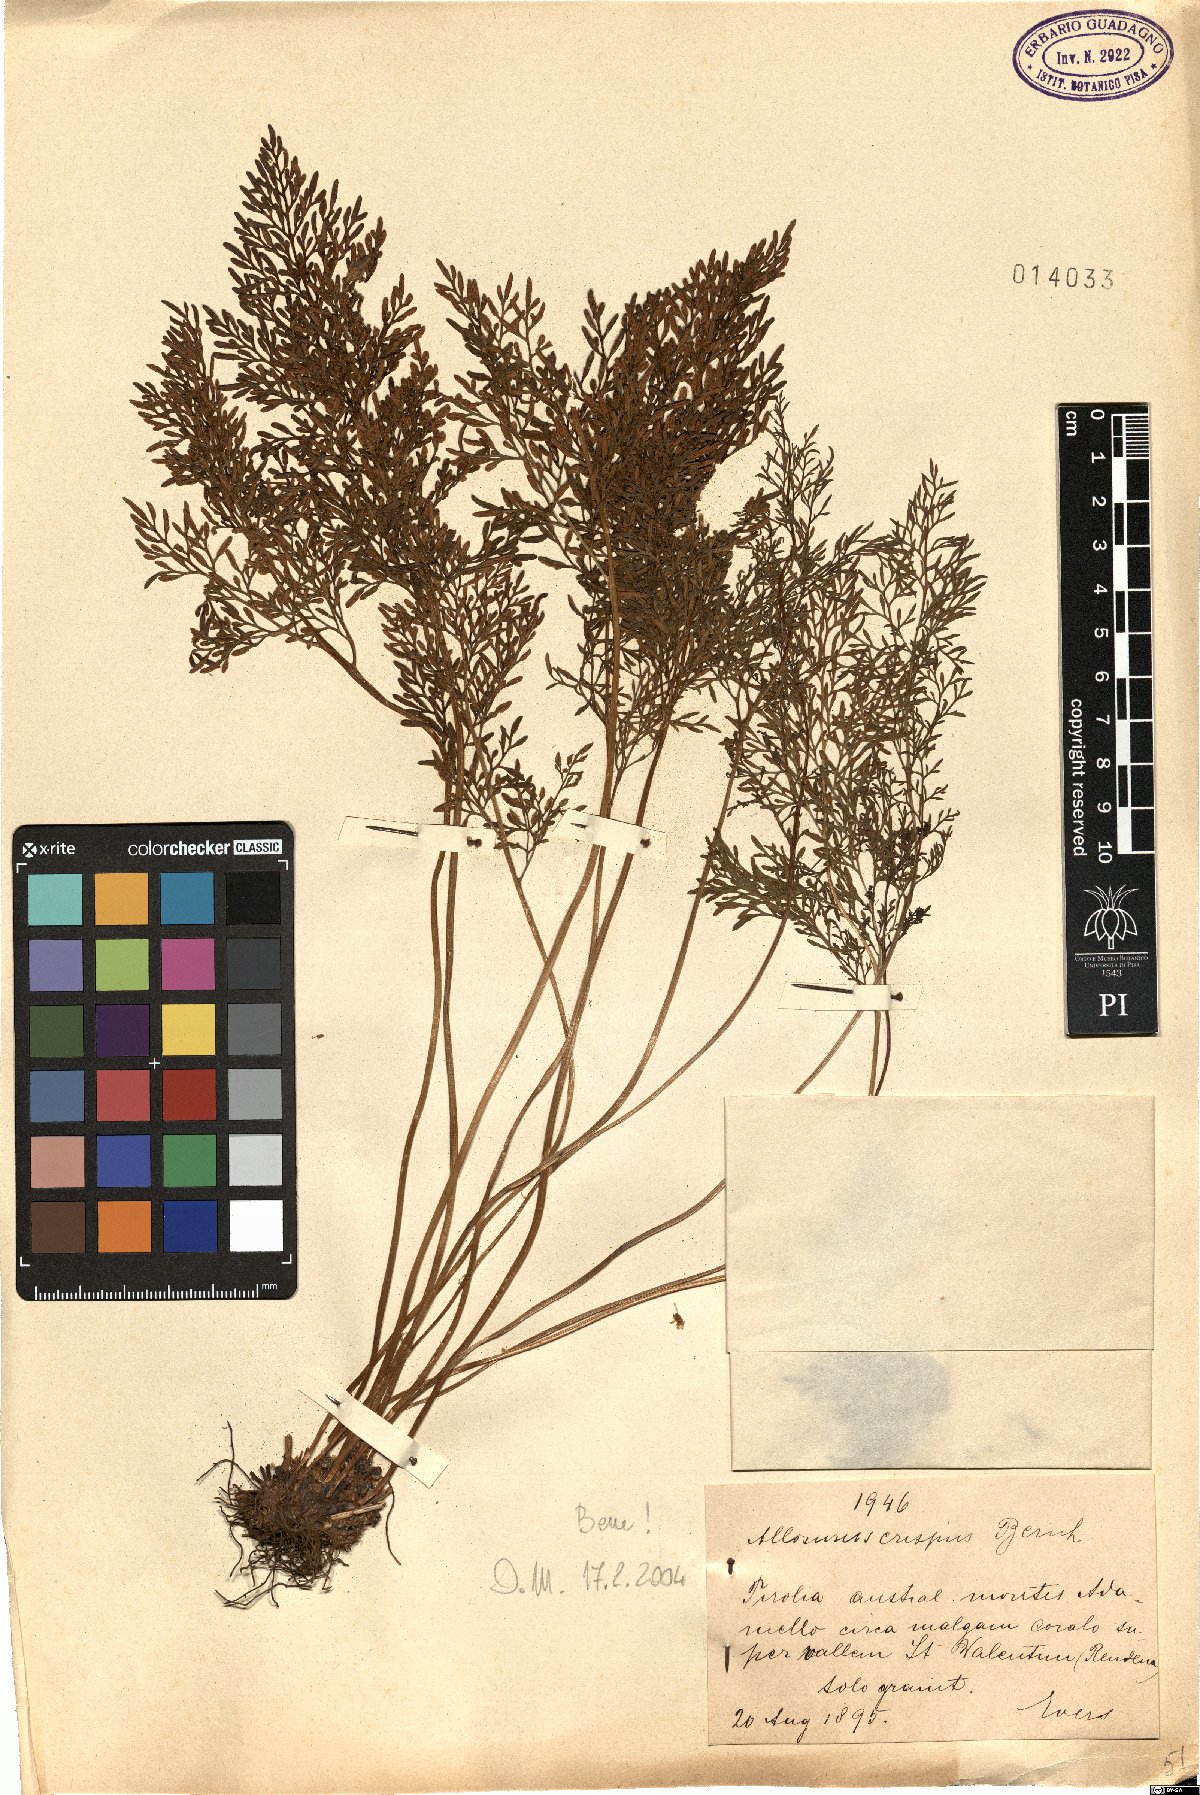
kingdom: Plantae
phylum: Tracheophyta
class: Polypodiopsida
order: Polypodiales
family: Pteridaceae
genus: Cryptogramma
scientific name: Cryptogramma crispa
